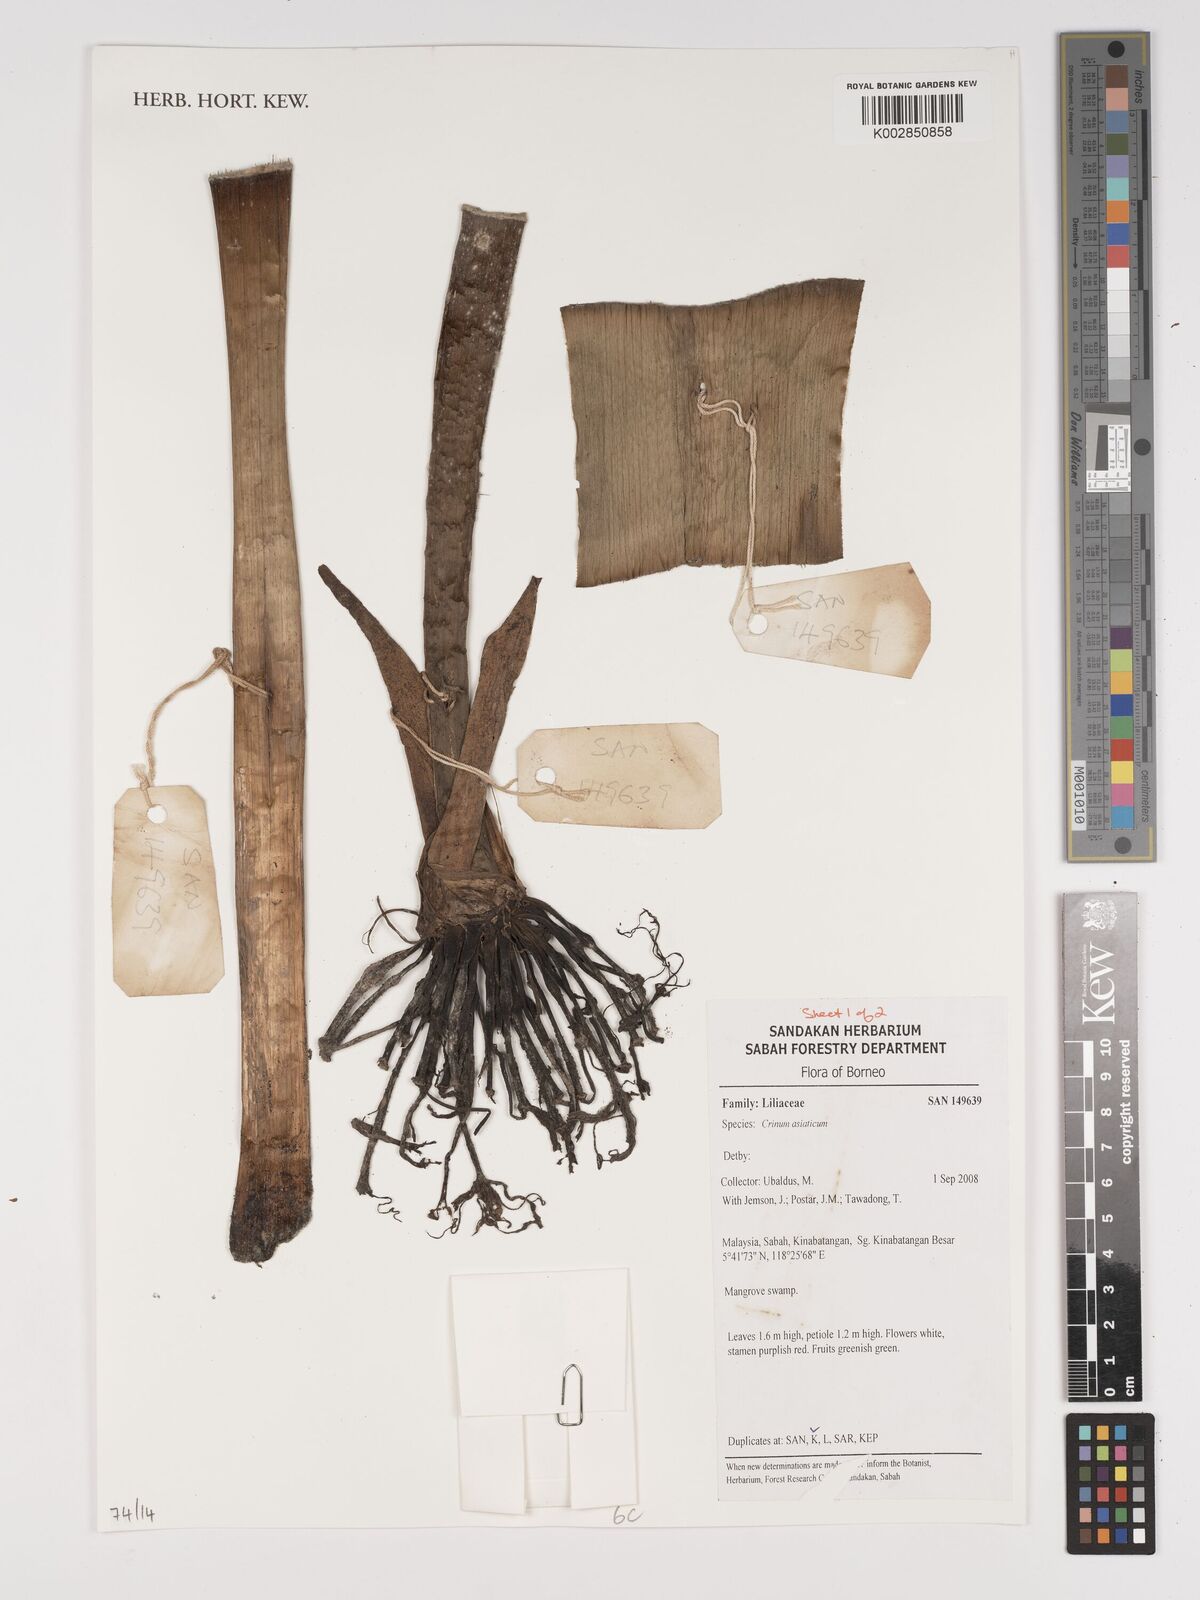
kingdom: Plantae
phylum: Tracheophyta
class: Liliopsida
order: Asparagales
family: Amaryllidaceae
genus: Crinum
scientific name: Crinum asiaticum
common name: Poisonbulb
